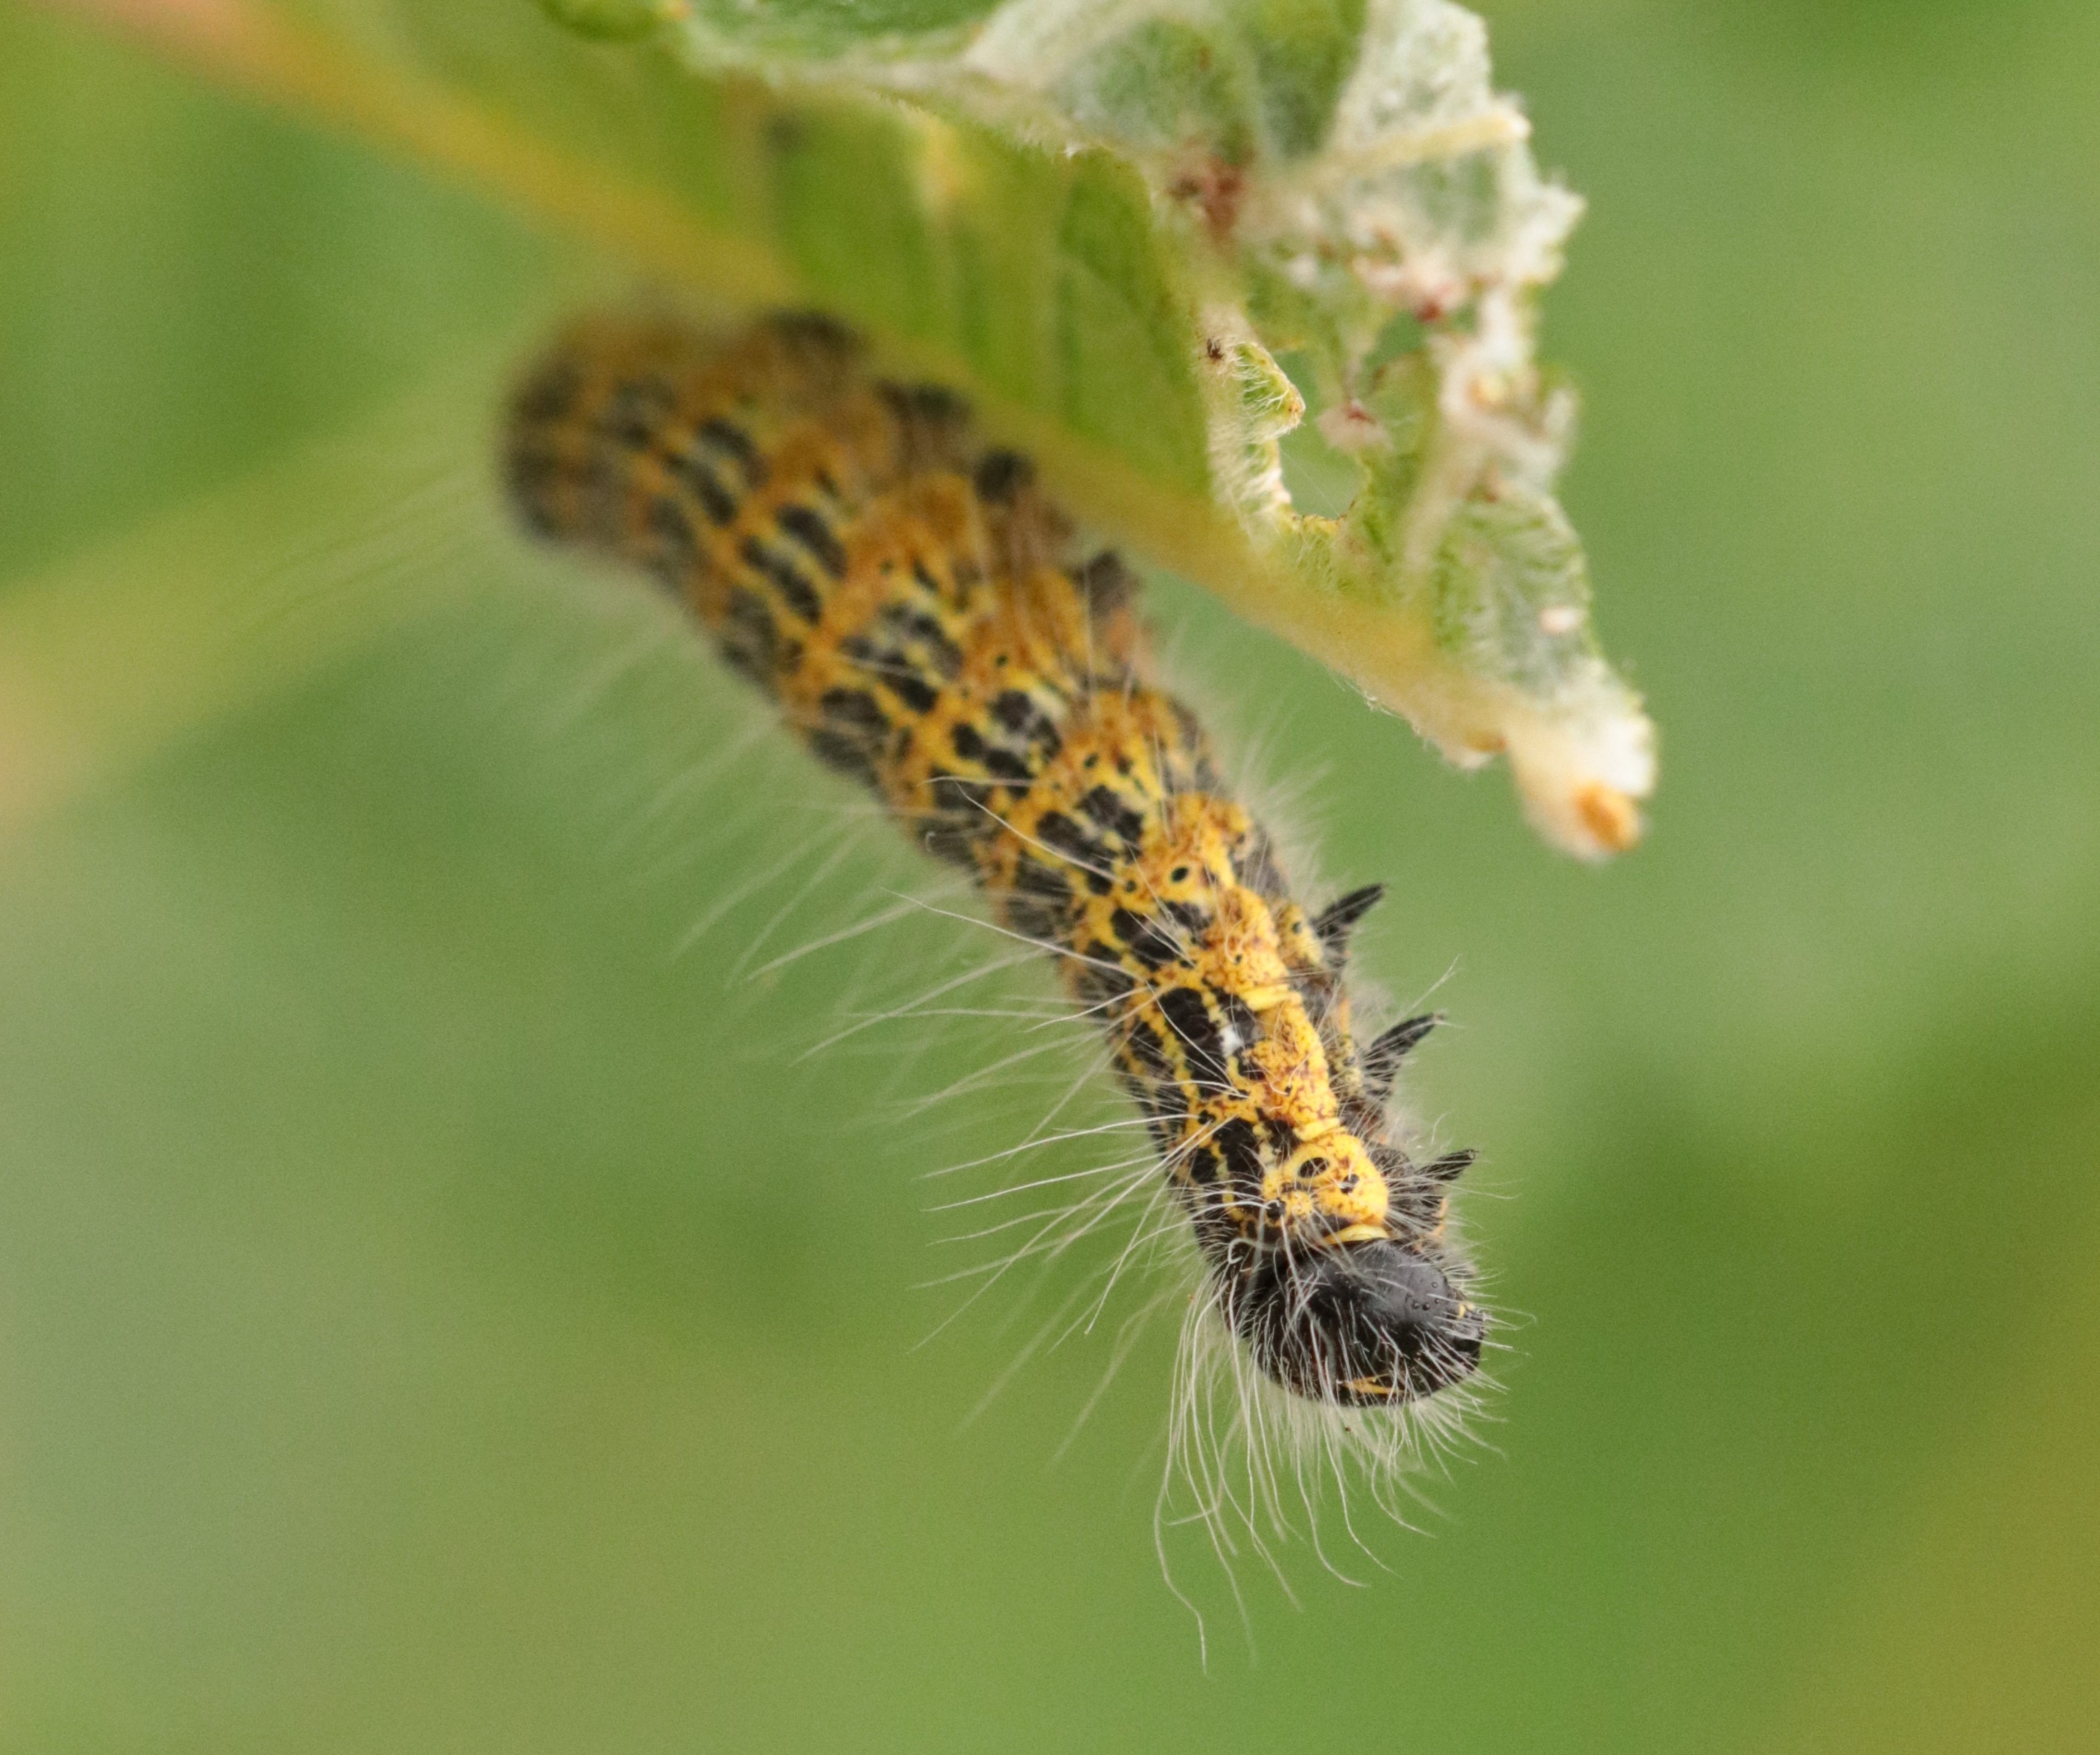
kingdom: Animalia
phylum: Arthropoda
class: Insecta
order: Lepidoptera
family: Notodontidae
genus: Phalera
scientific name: Phalera bucephala
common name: Måneplet
